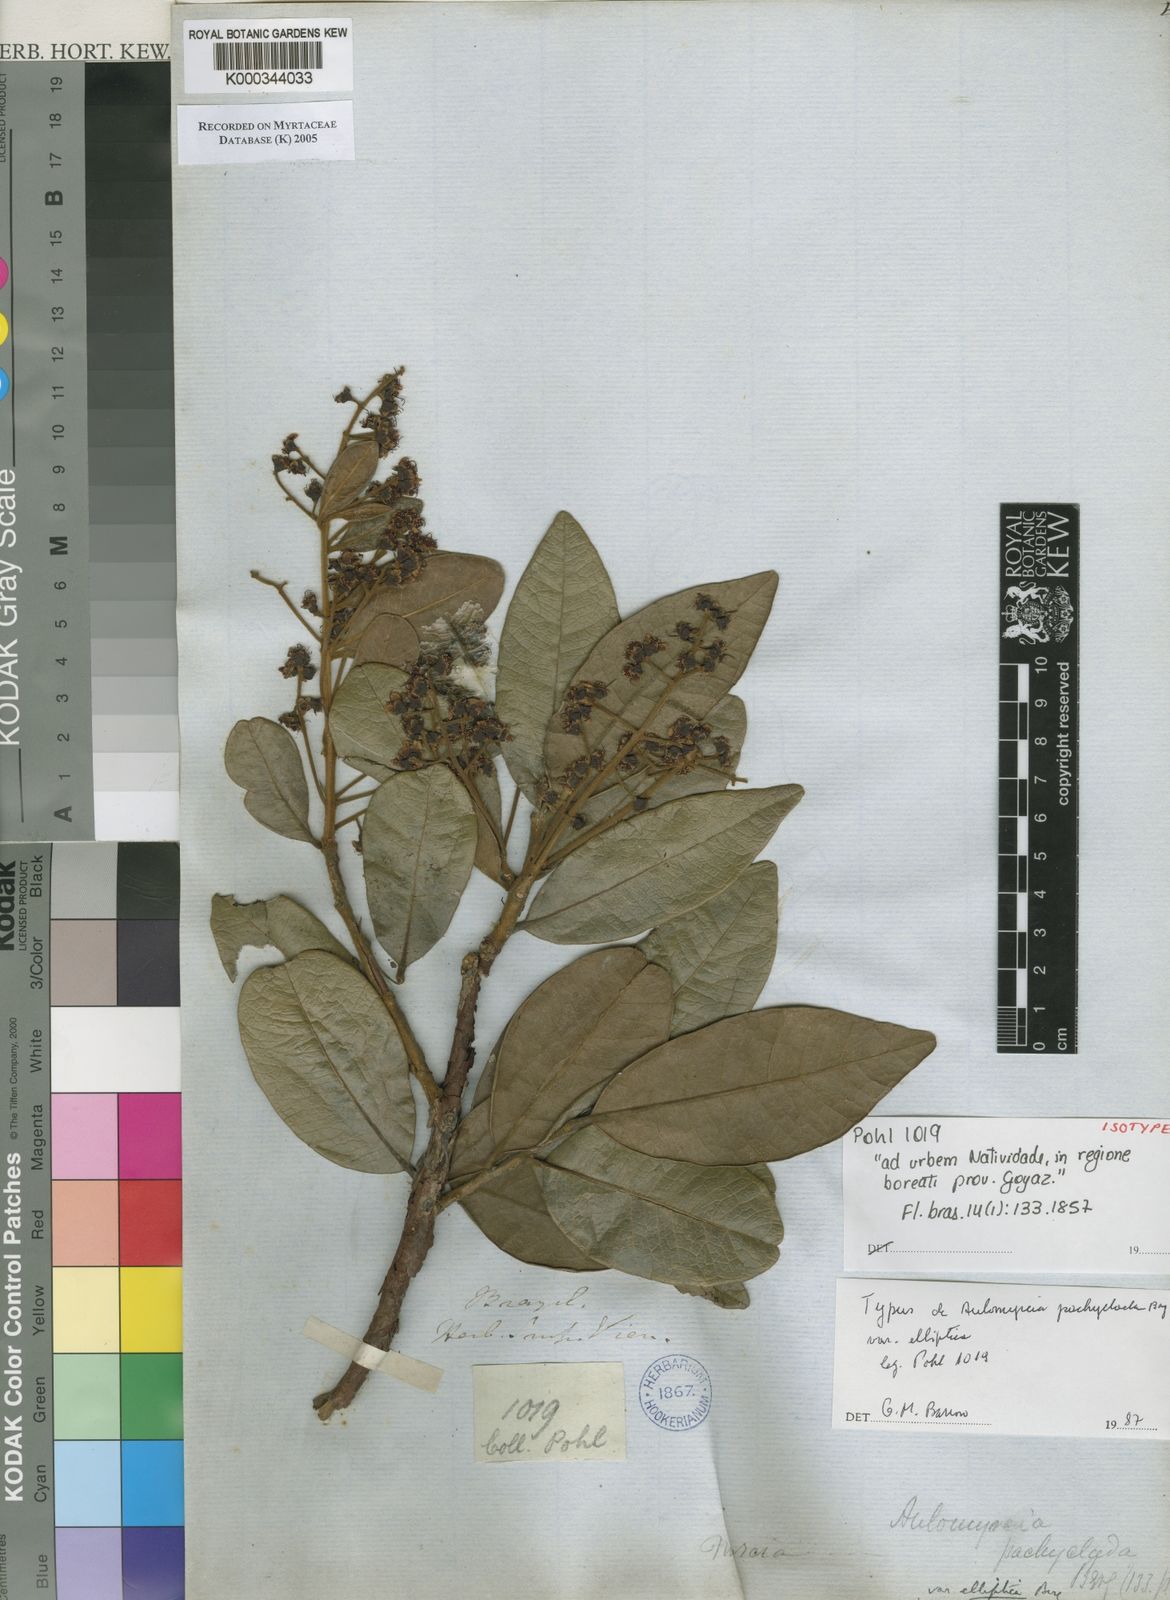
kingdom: Plantae
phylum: Tracheophyta
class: Magnoliopsida
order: Myrtales
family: Myrtaceae
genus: Myrcia
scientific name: Myrcia vestita
